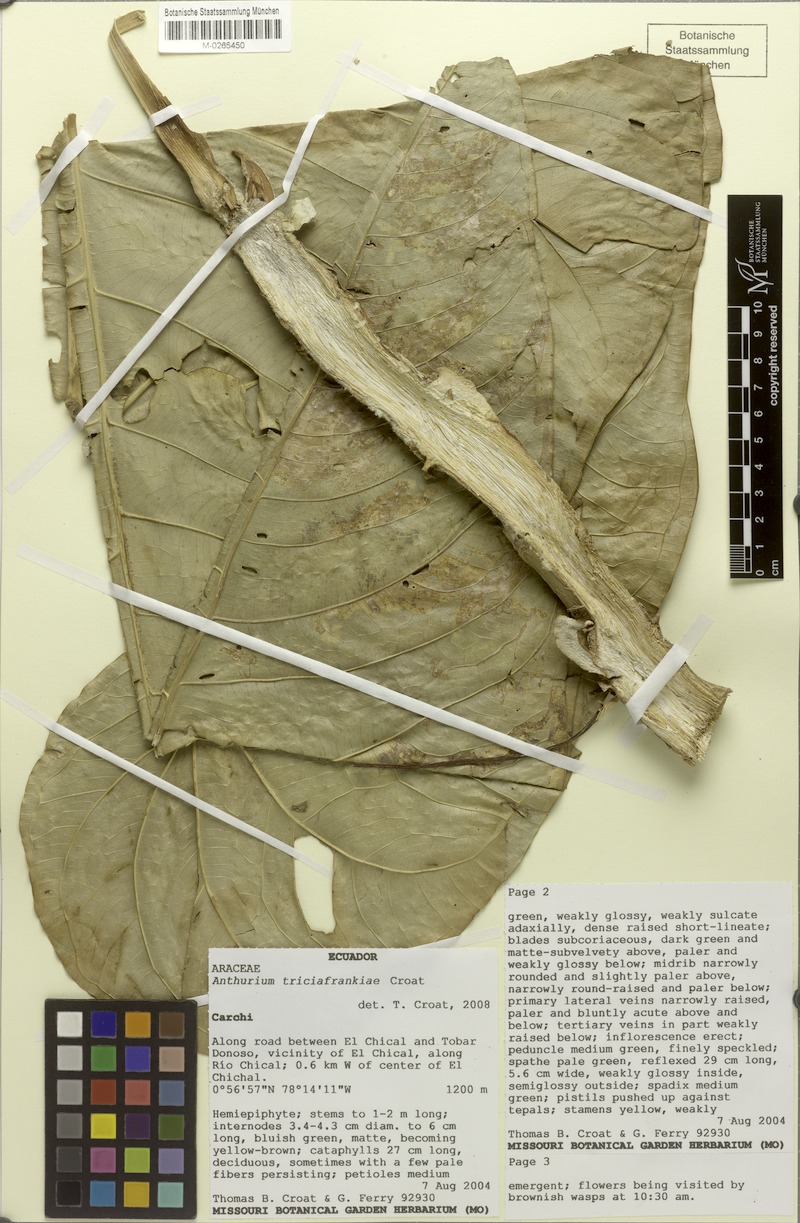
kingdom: Plantae
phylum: Tracheophyta
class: Liliopsida
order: Alismatales
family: Araceae
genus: Anthurium
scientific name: Anthurium triciafrankiae
